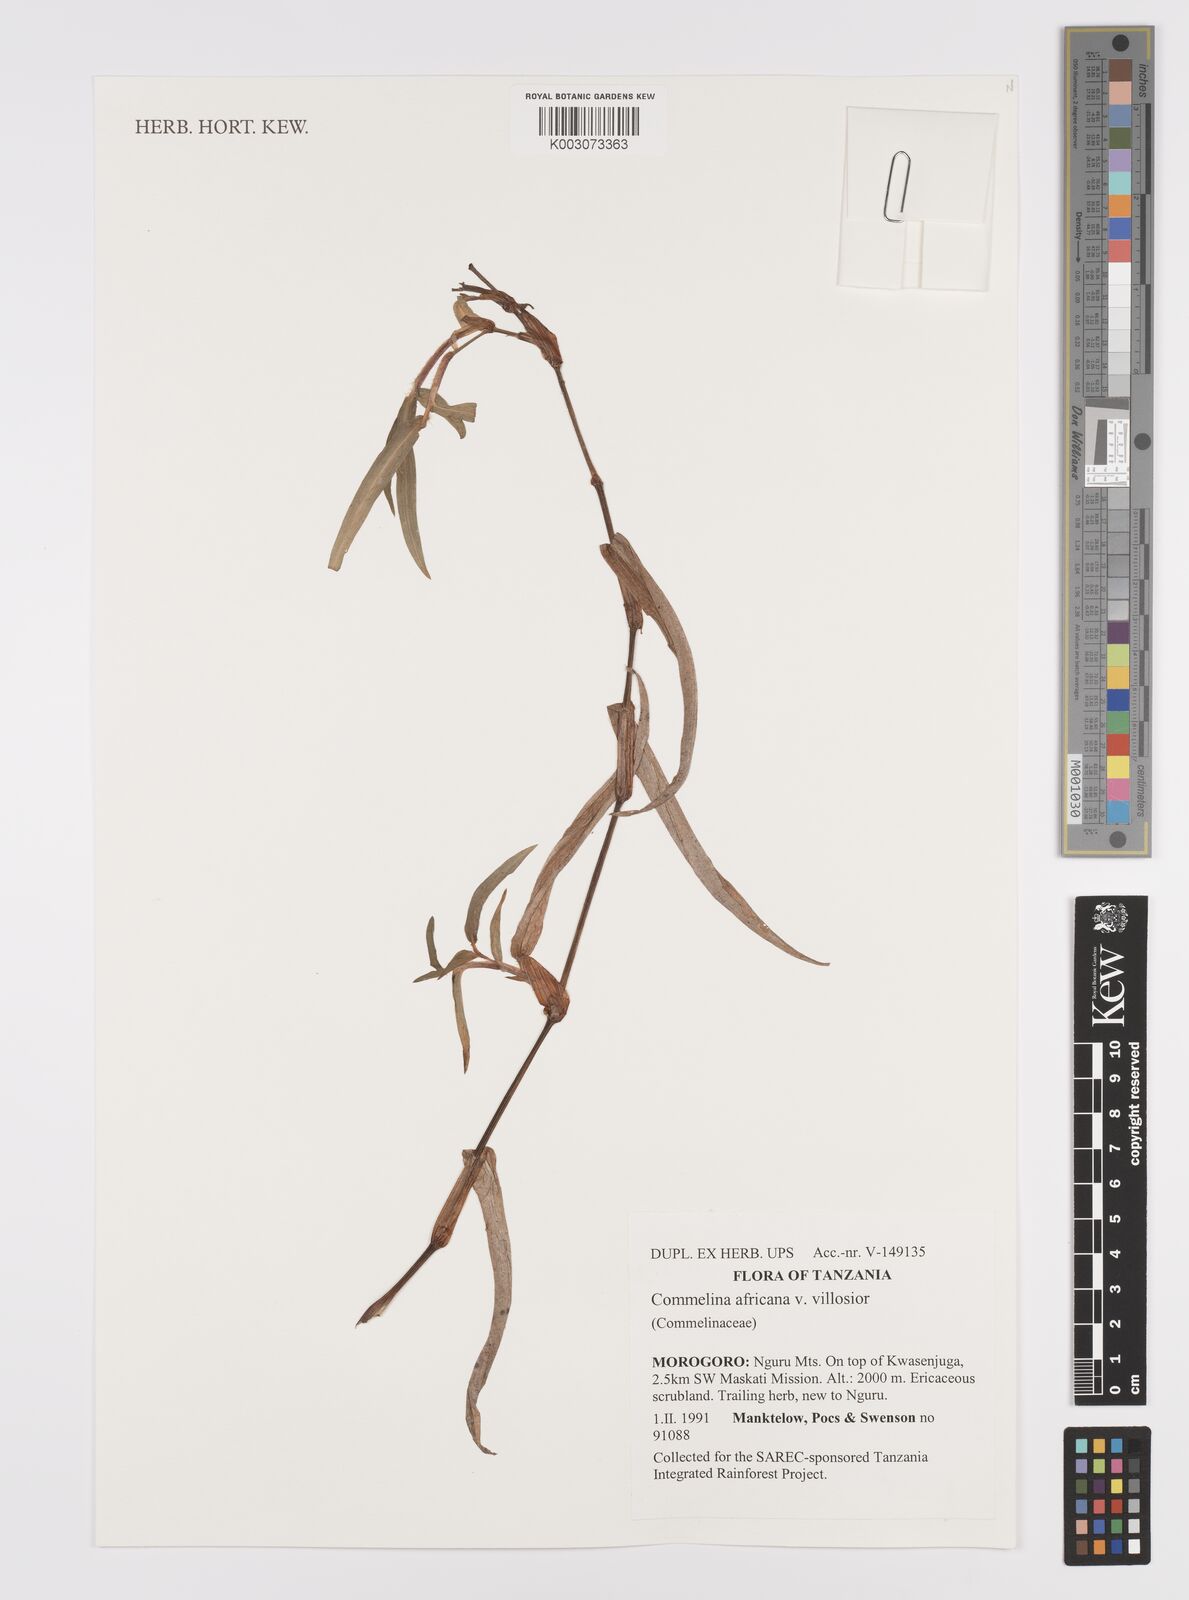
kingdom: Plantae
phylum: Tracheophyta
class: Liliopsida
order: Commelinales
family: Commelinaceae
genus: Commelina
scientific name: Commelina africana
